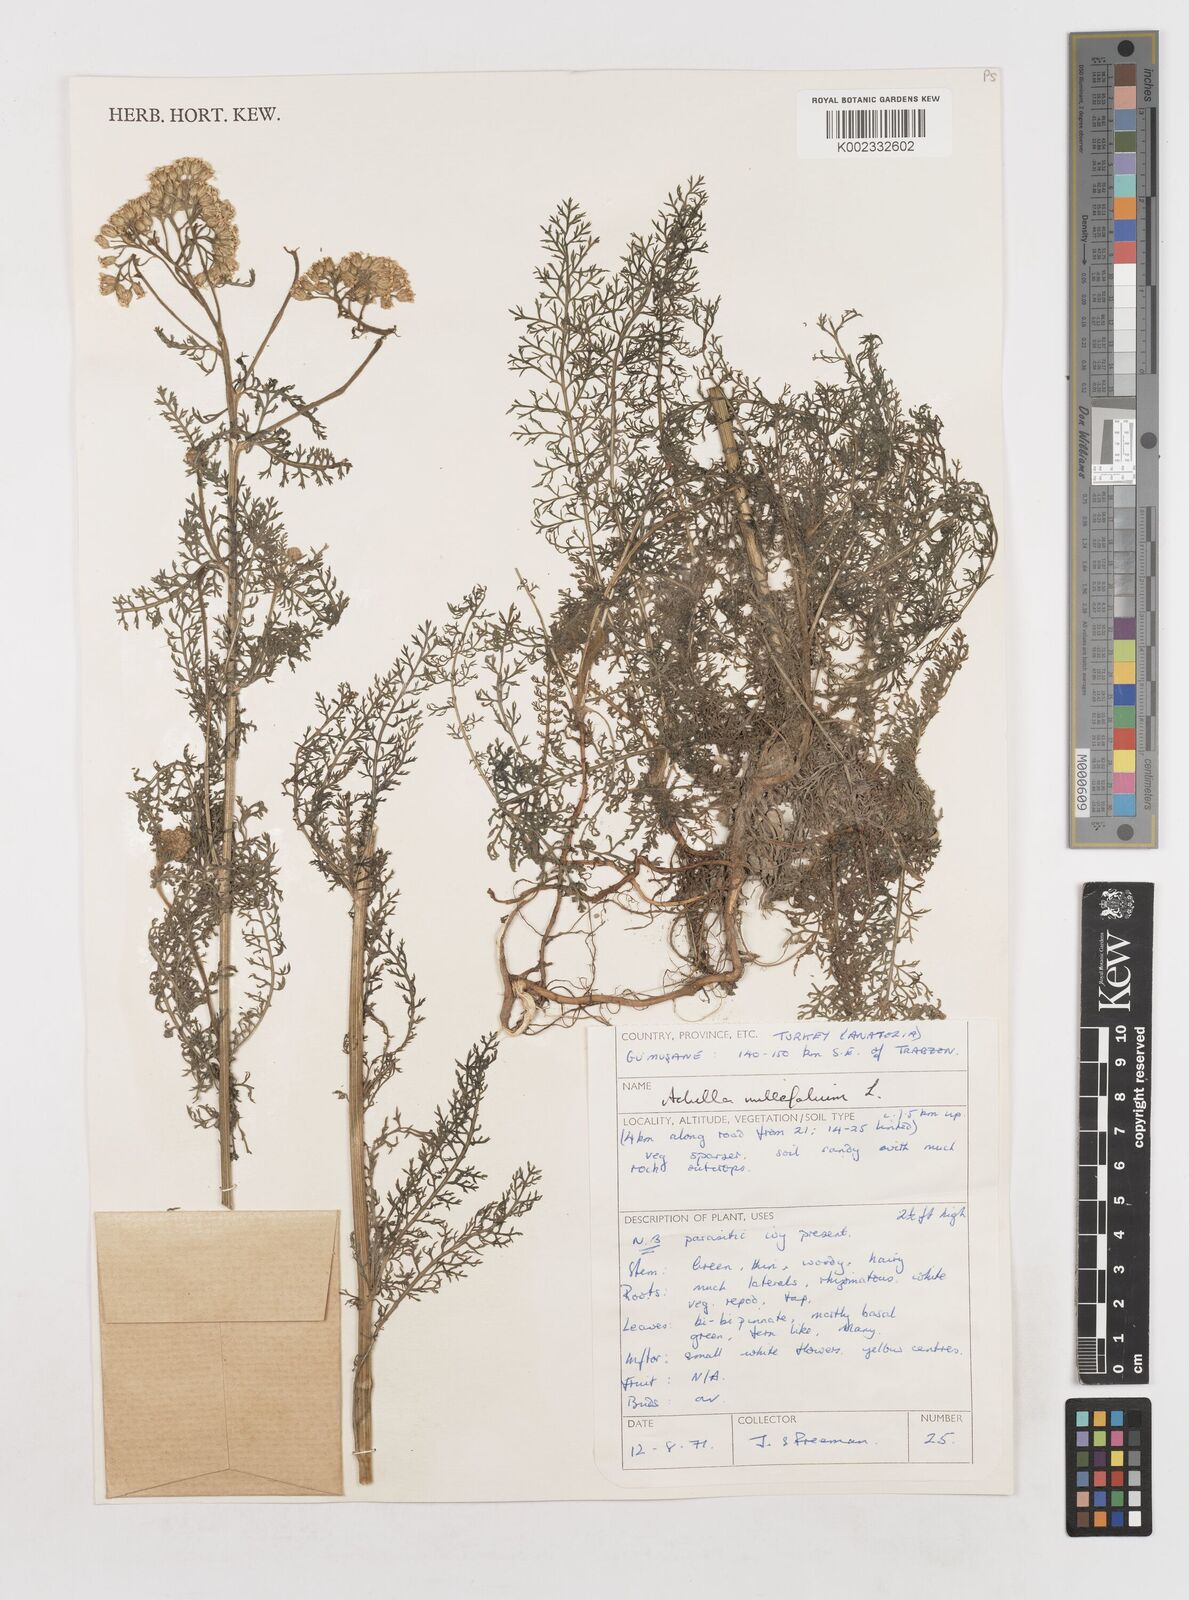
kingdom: Plantae
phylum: Tracheophyta
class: Magnoliopsida
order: Asterales
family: Asteraceae
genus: Achillea
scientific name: Achillea millefolium
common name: Yarrow
